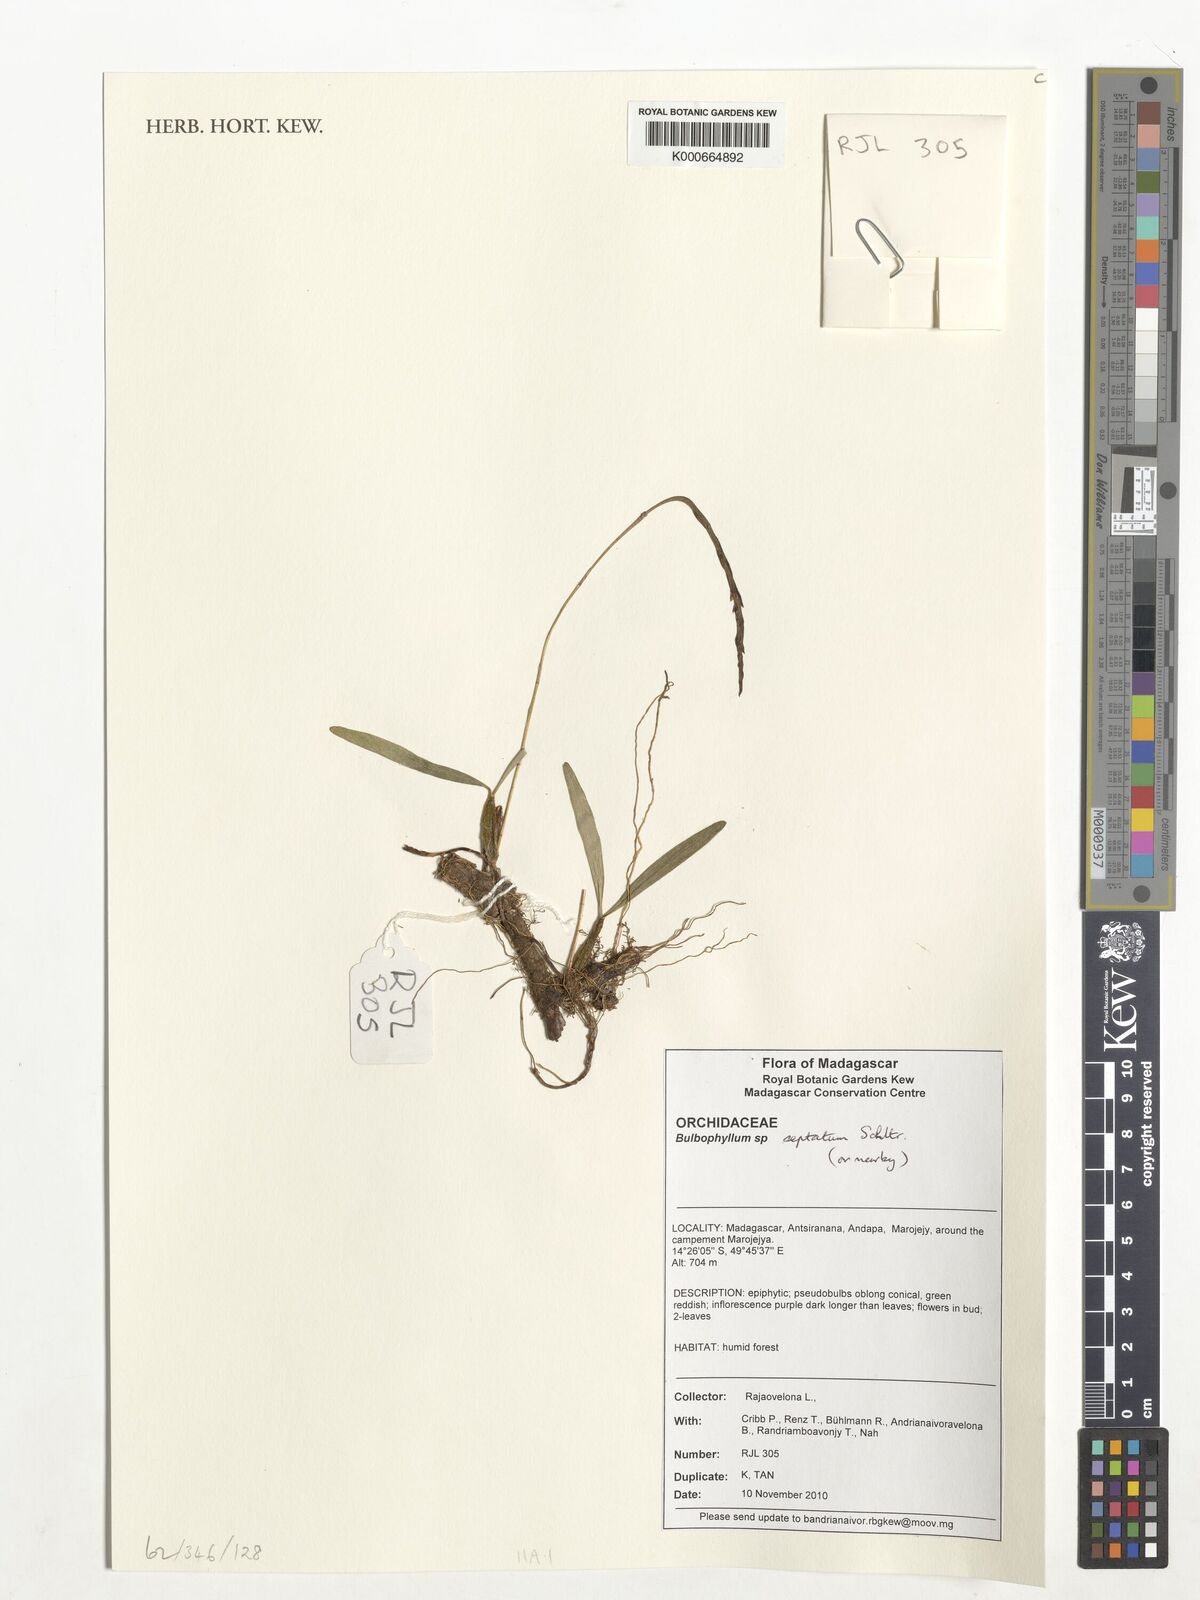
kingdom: Plantae
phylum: Tracheophyta
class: Liliopsida
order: Asparagales
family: Orchidaceae
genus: Bulbophyllum
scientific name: Bulbophyllum septatum
